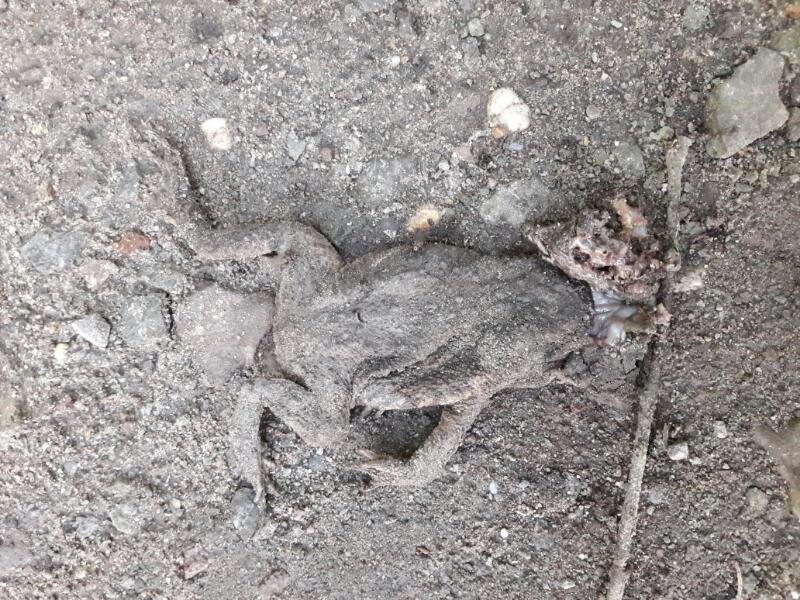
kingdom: Animalia
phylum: Chordata
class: Amphibia
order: Anura
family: Bufonidae
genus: Bufo
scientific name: Bufo bufo
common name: Common toad
